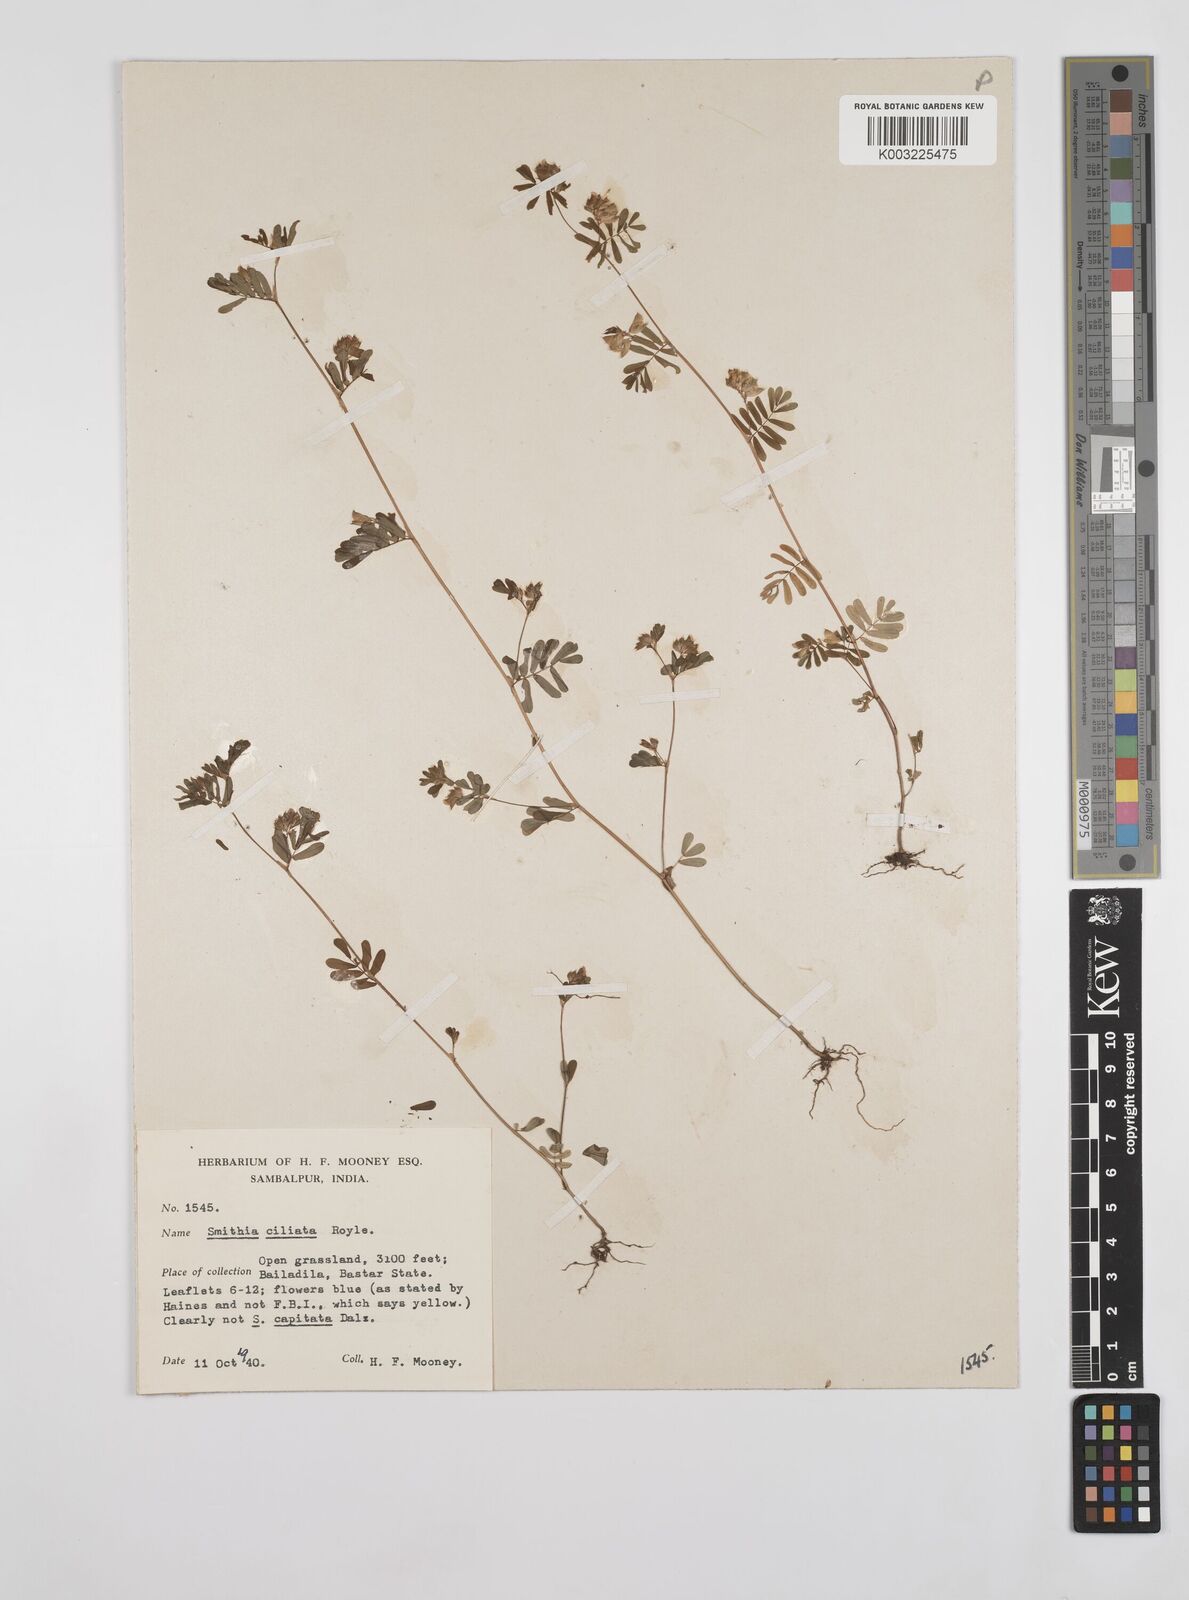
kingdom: Plantae
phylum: Tracheophyta
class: Magnoliopsida
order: Fabales
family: Fabaceae
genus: Smithia
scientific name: Smithia ciliata
